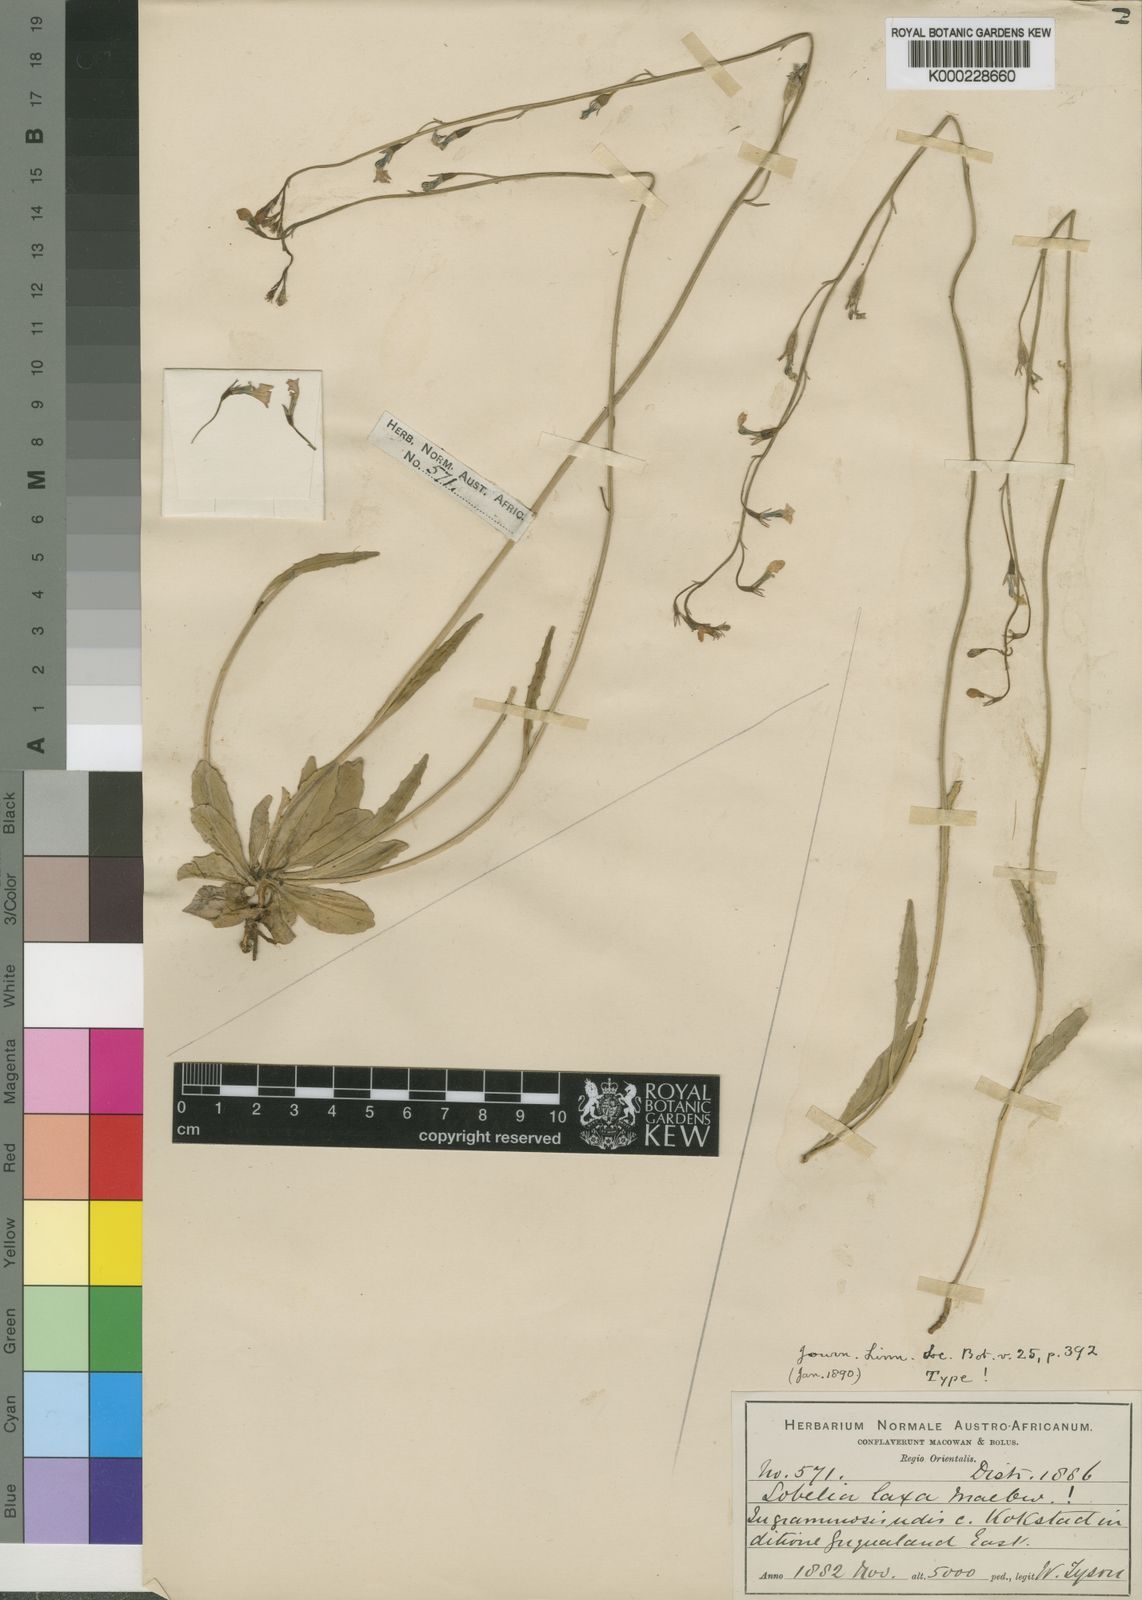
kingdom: Plantae
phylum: Tracheophyta
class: Magnoliopsida
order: Asterales
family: Campanulaceae
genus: Lobelia
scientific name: Lobelia laxa
